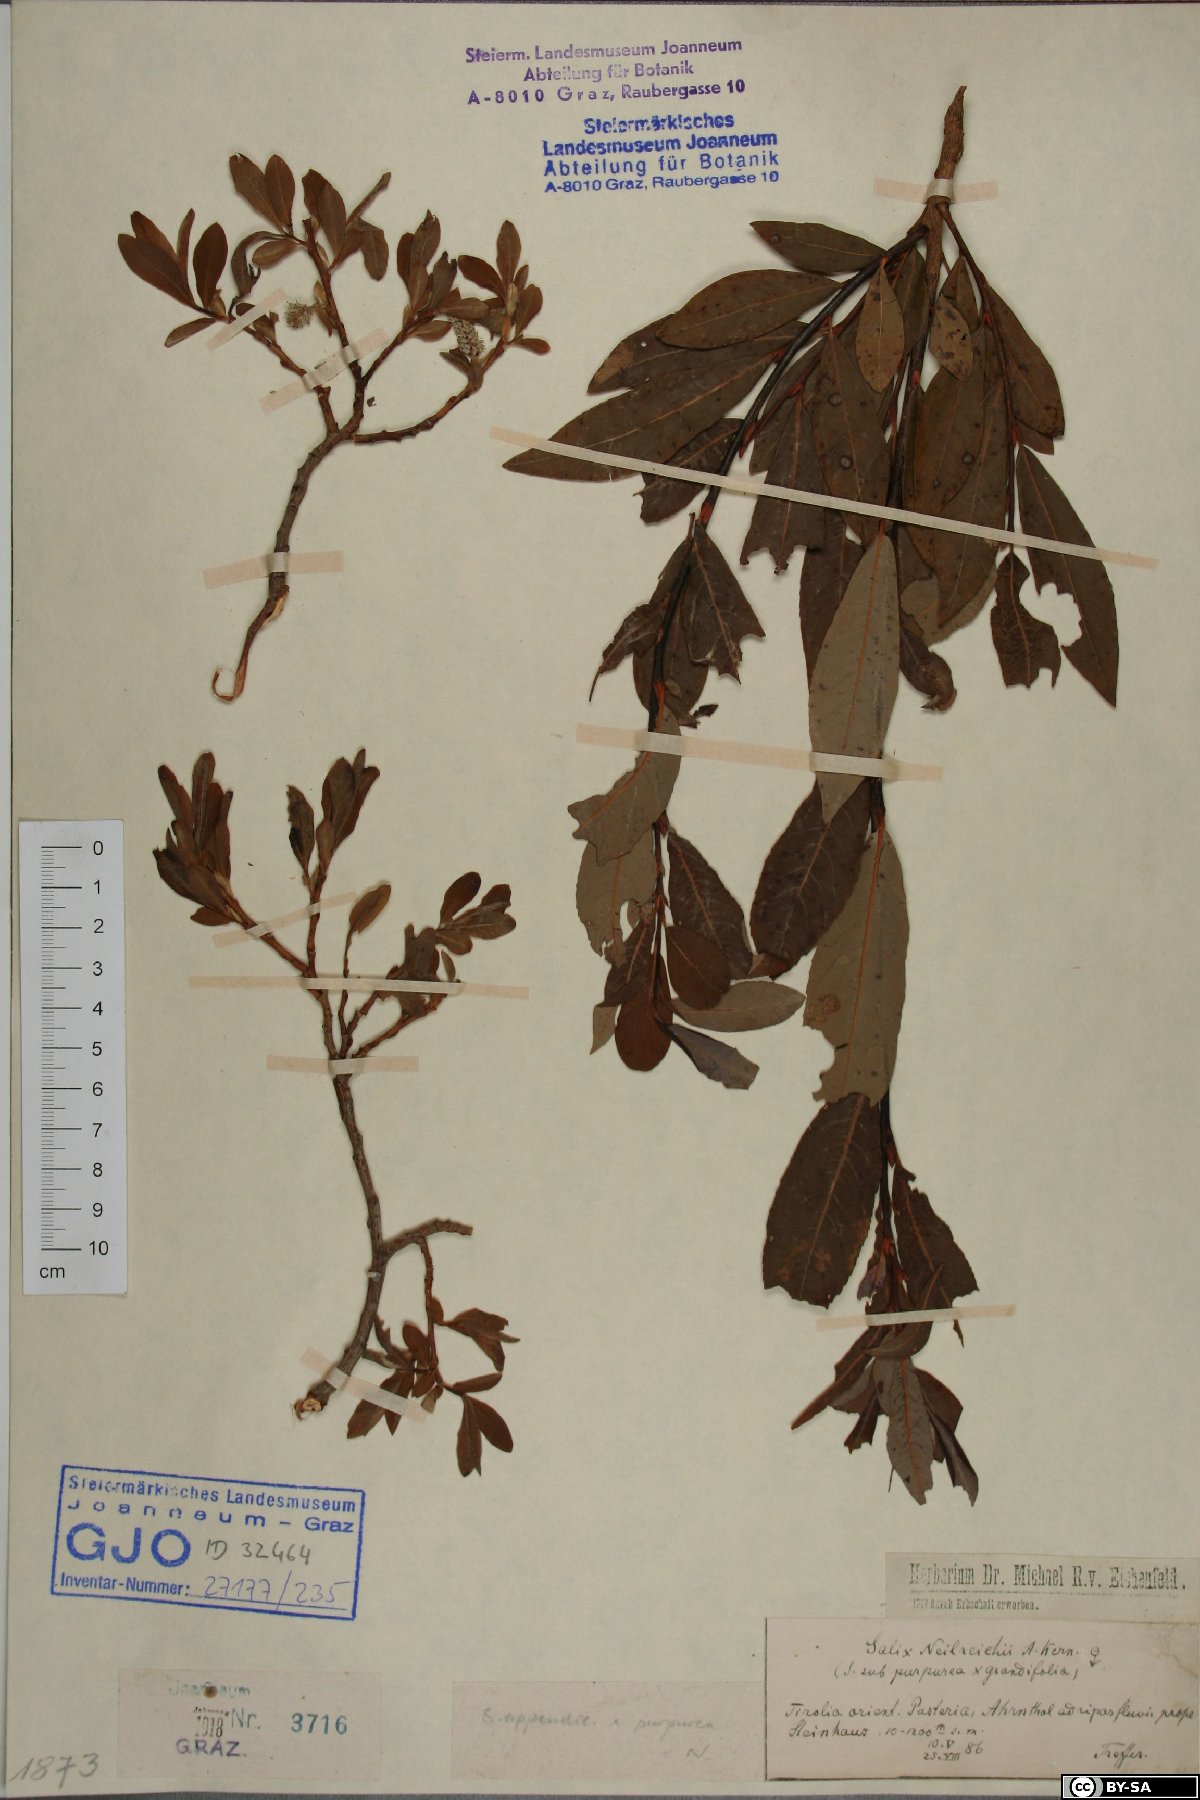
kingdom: Plantae
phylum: Tracheophyta
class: Magnoliopsida
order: Malpighiales
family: Salicaceae
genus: Salix
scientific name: Salix purpurea
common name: Purple willow
